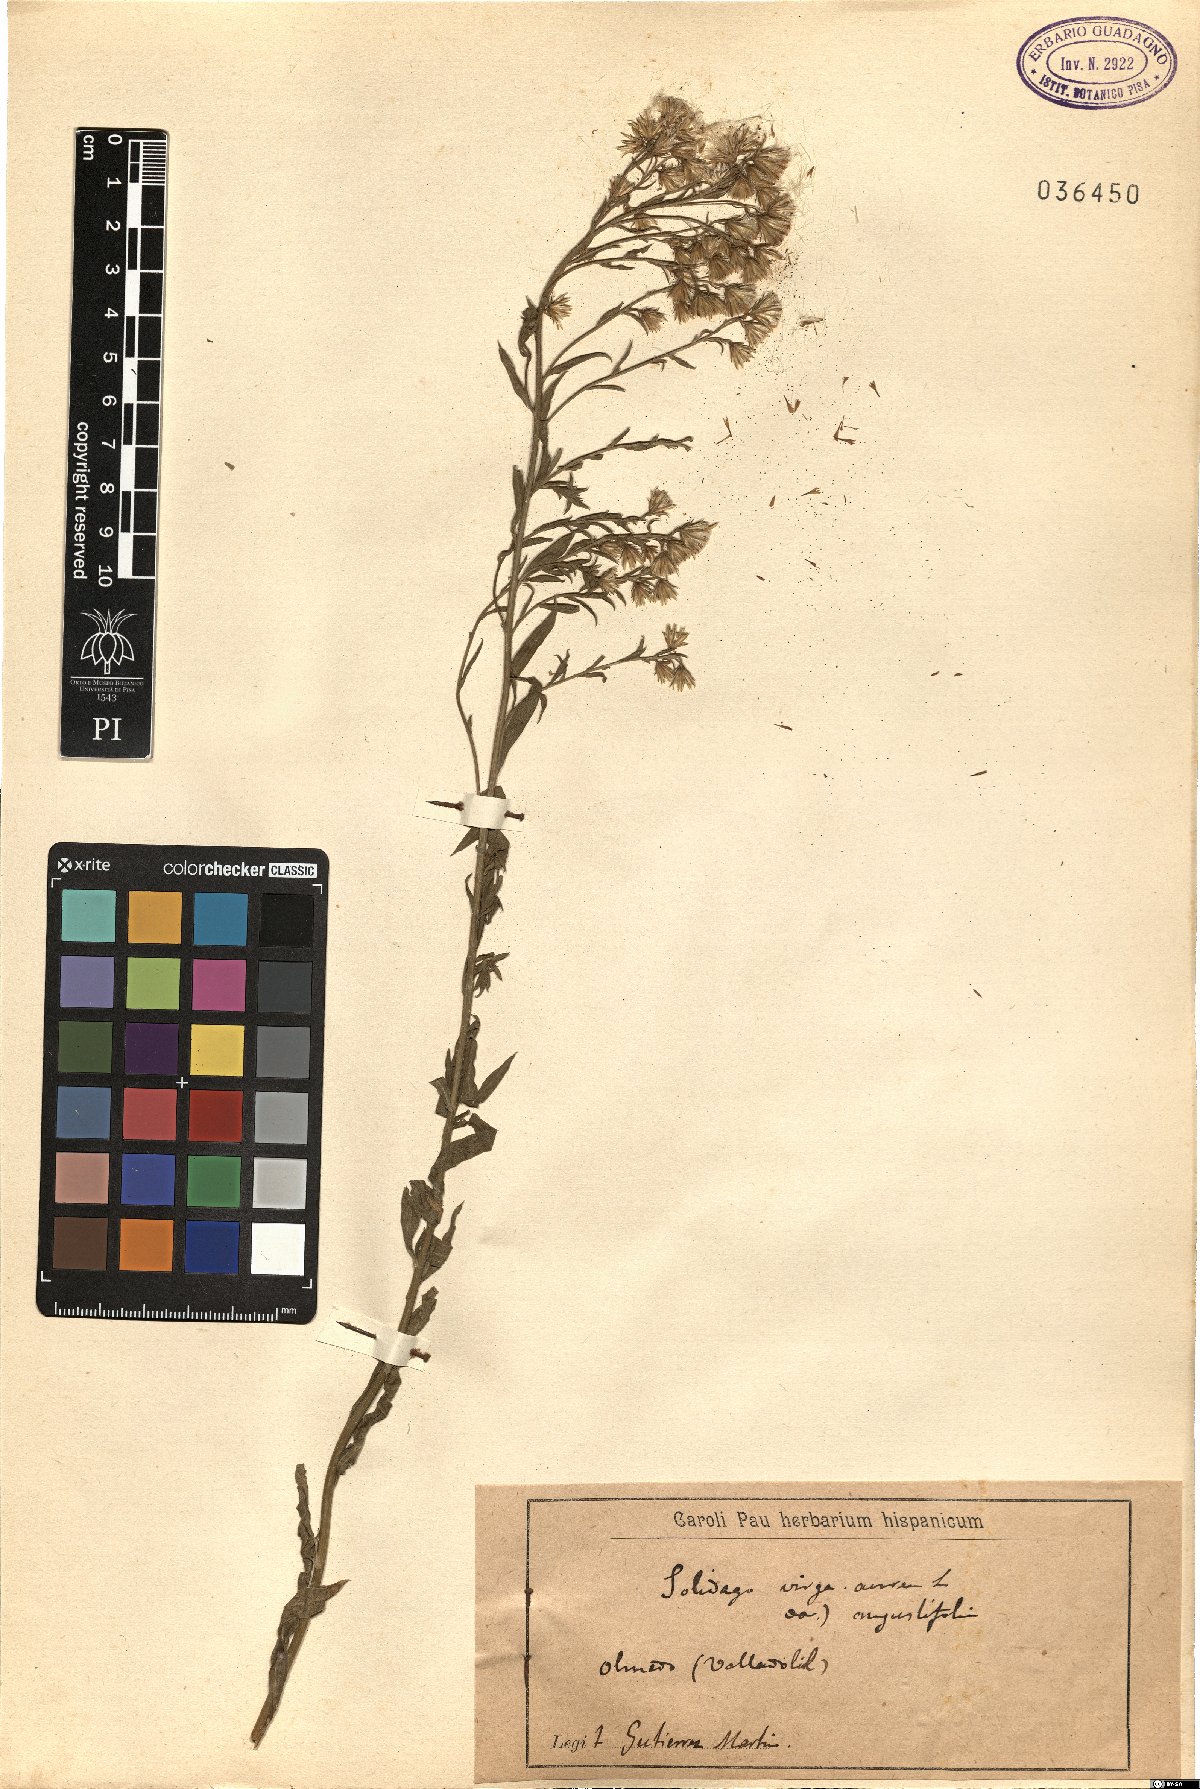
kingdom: Plantae
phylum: Tracheophyta
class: Magnoliopsida
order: Asterales
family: Asteraceae
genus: Solidago
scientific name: Solidago virgaurea
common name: Goldenrod
